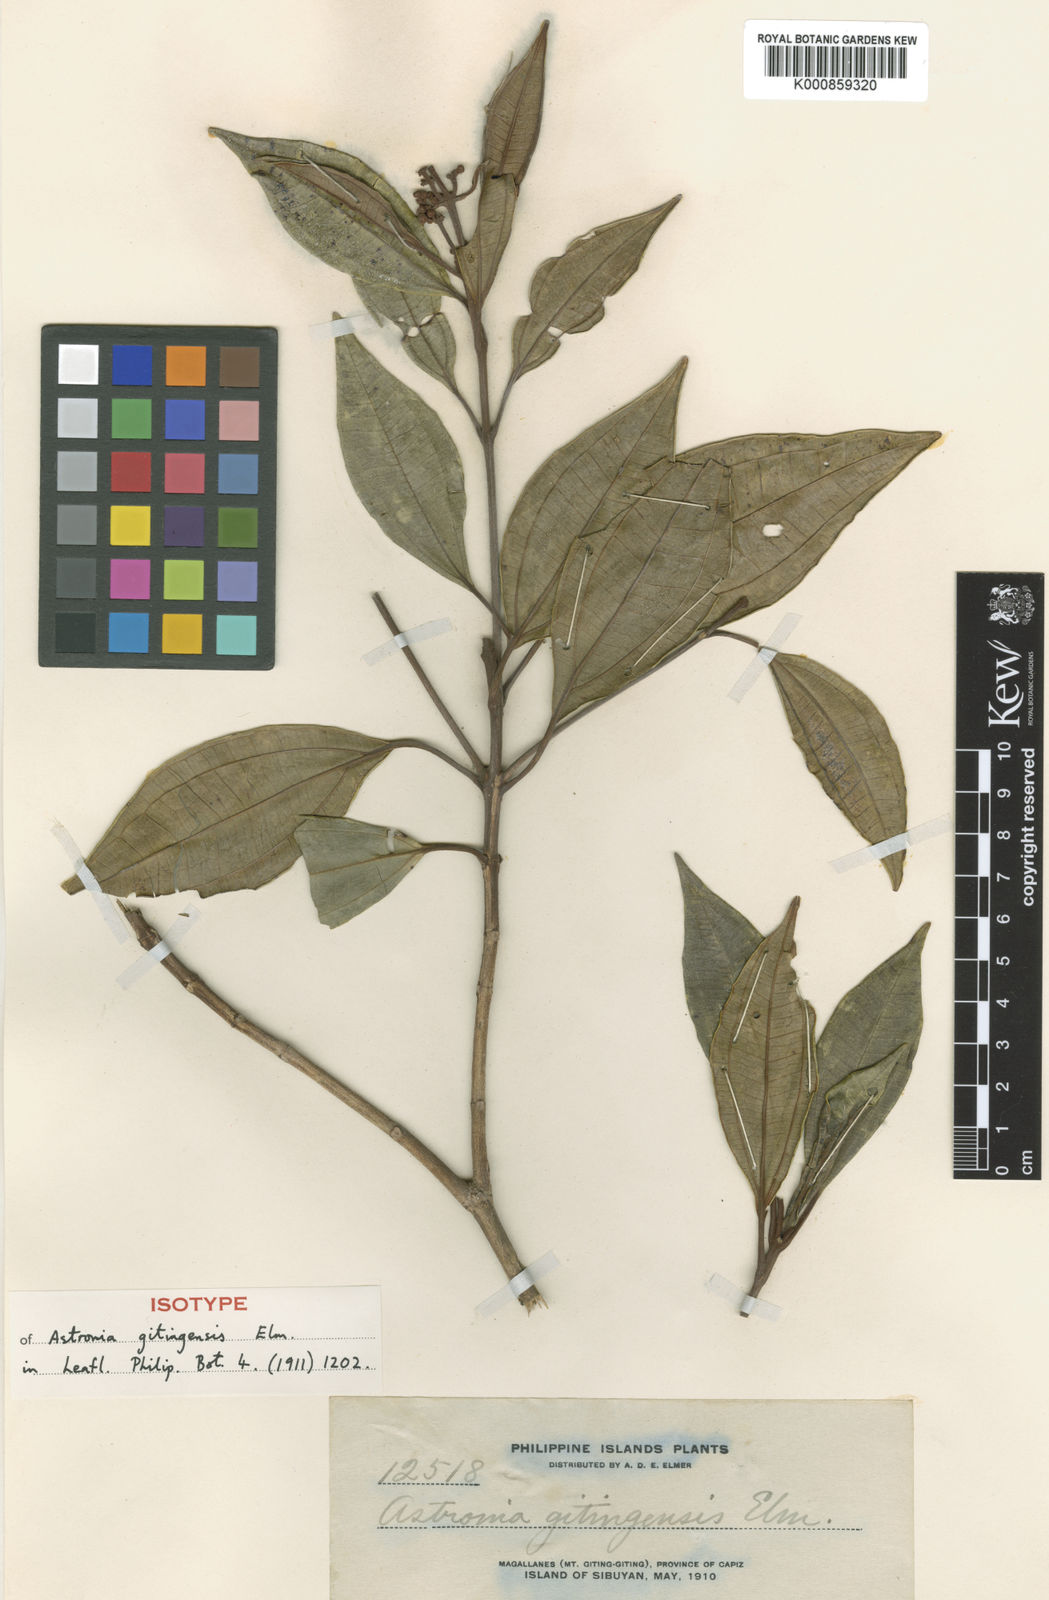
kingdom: Plantae
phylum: Tracheophyta
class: Magnoliopsida
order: Myrtales
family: Melastomataceae
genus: Astronia
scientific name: Astronia gitingensis
